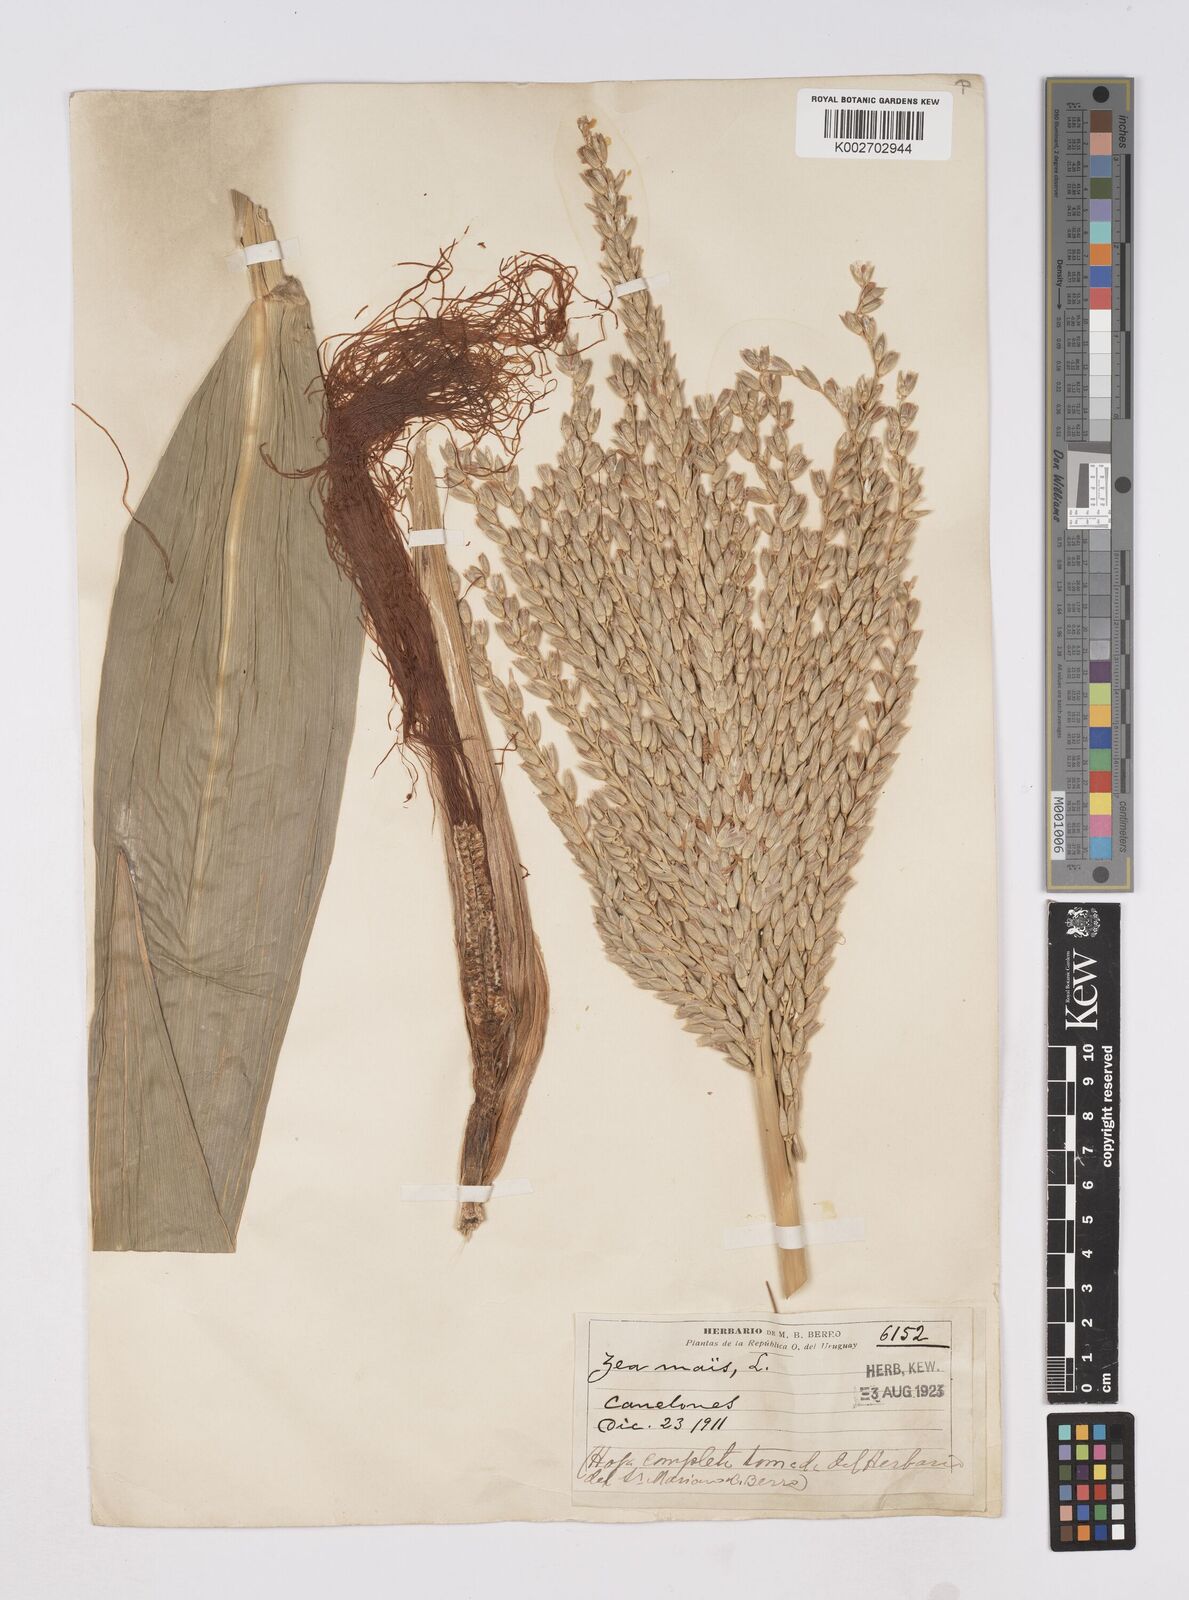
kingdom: Plantae
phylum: Tracheophyta
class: Liliopsida
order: Poales
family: Poaceae
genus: Zea
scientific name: Zea mays
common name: Maize
